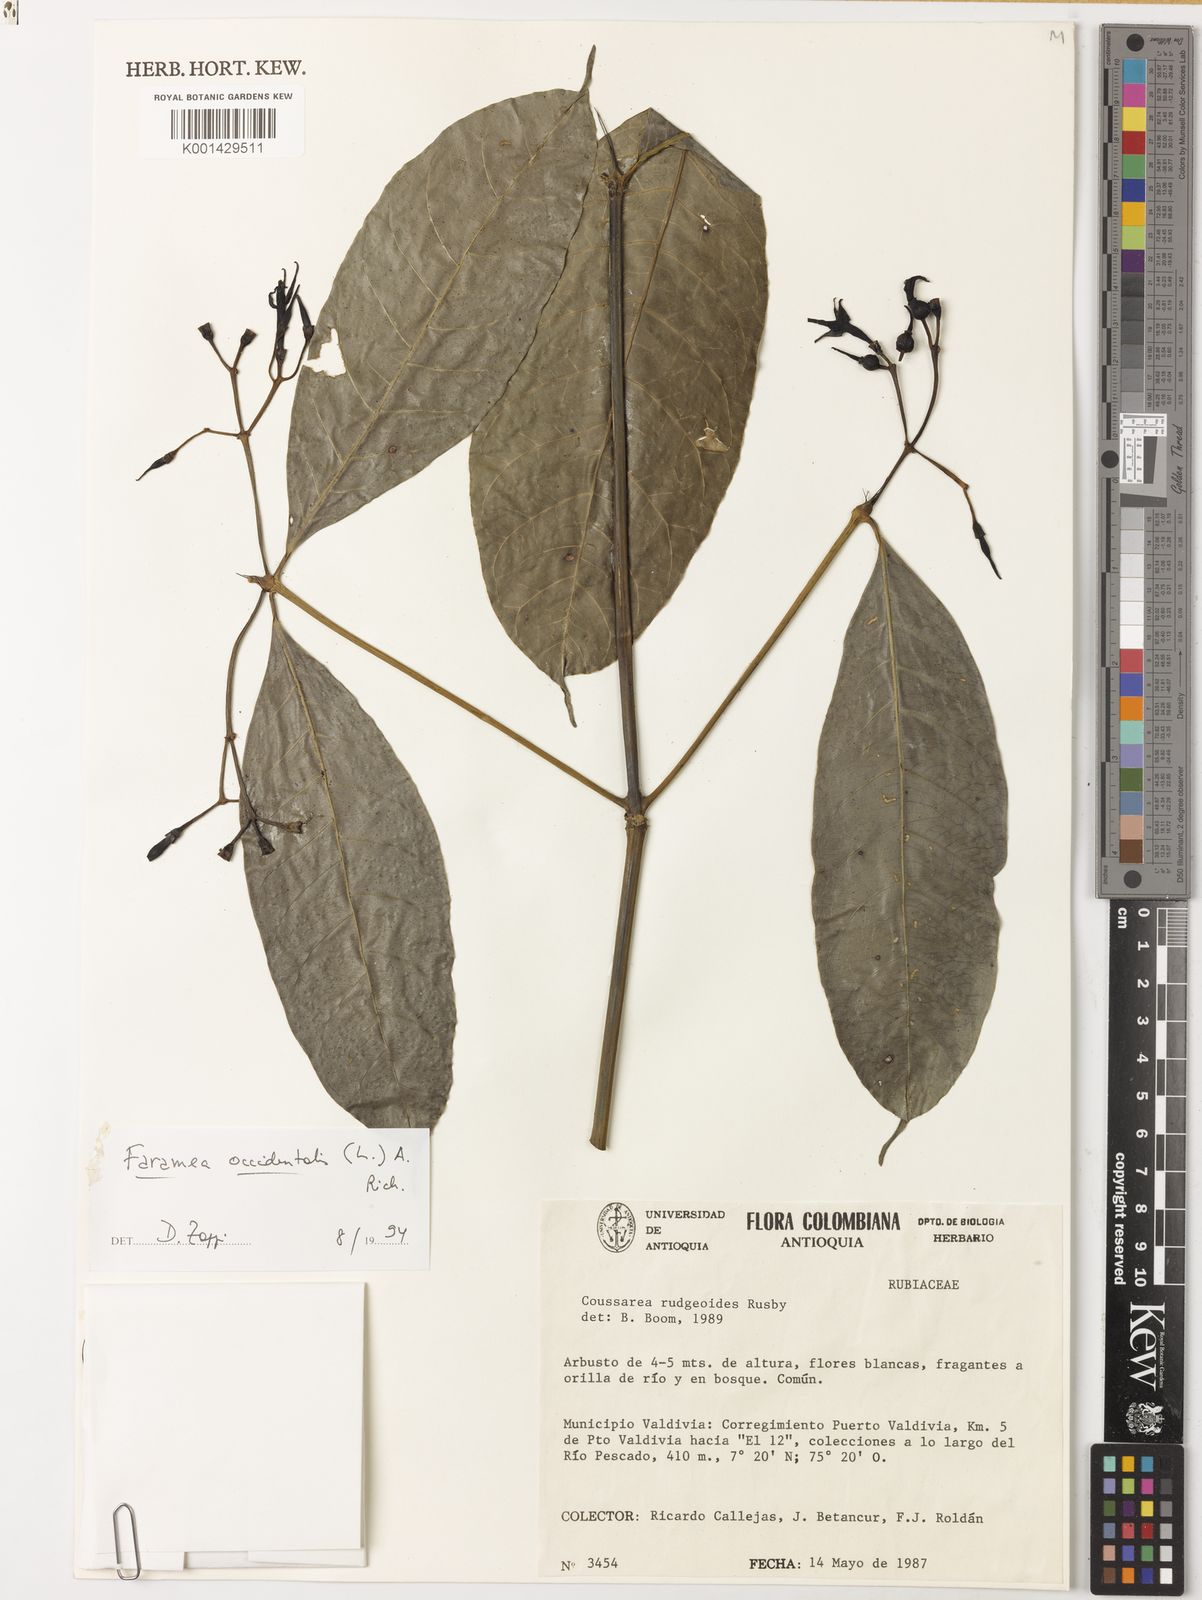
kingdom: Plantae
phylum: Tracheophyta
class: Magnoliopsida
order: Gentianales
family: Rubiaceae
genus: Faramea
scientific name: Faramea occidentalis
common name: False coffee
